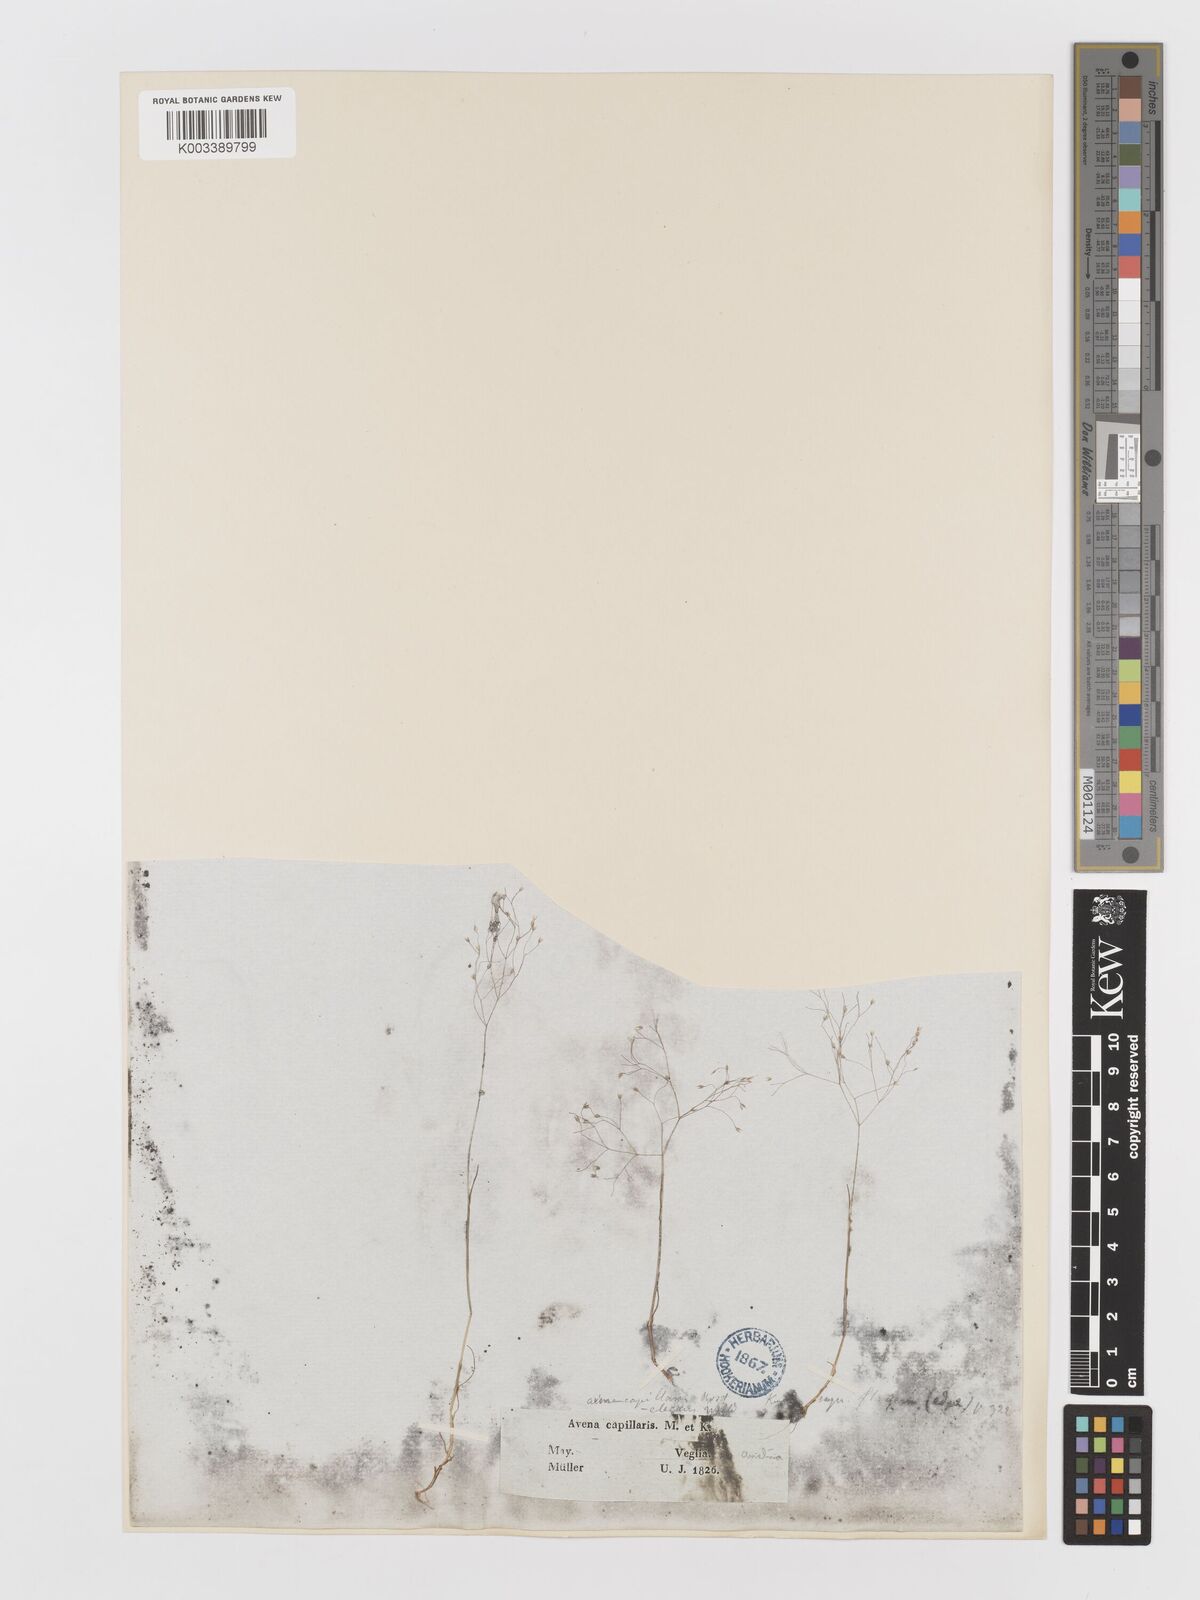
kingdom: Plantae
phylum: Tracheophyta
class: Liliopsida
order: Poales
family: Poaceae
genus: Aira
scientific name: Aira elegans
